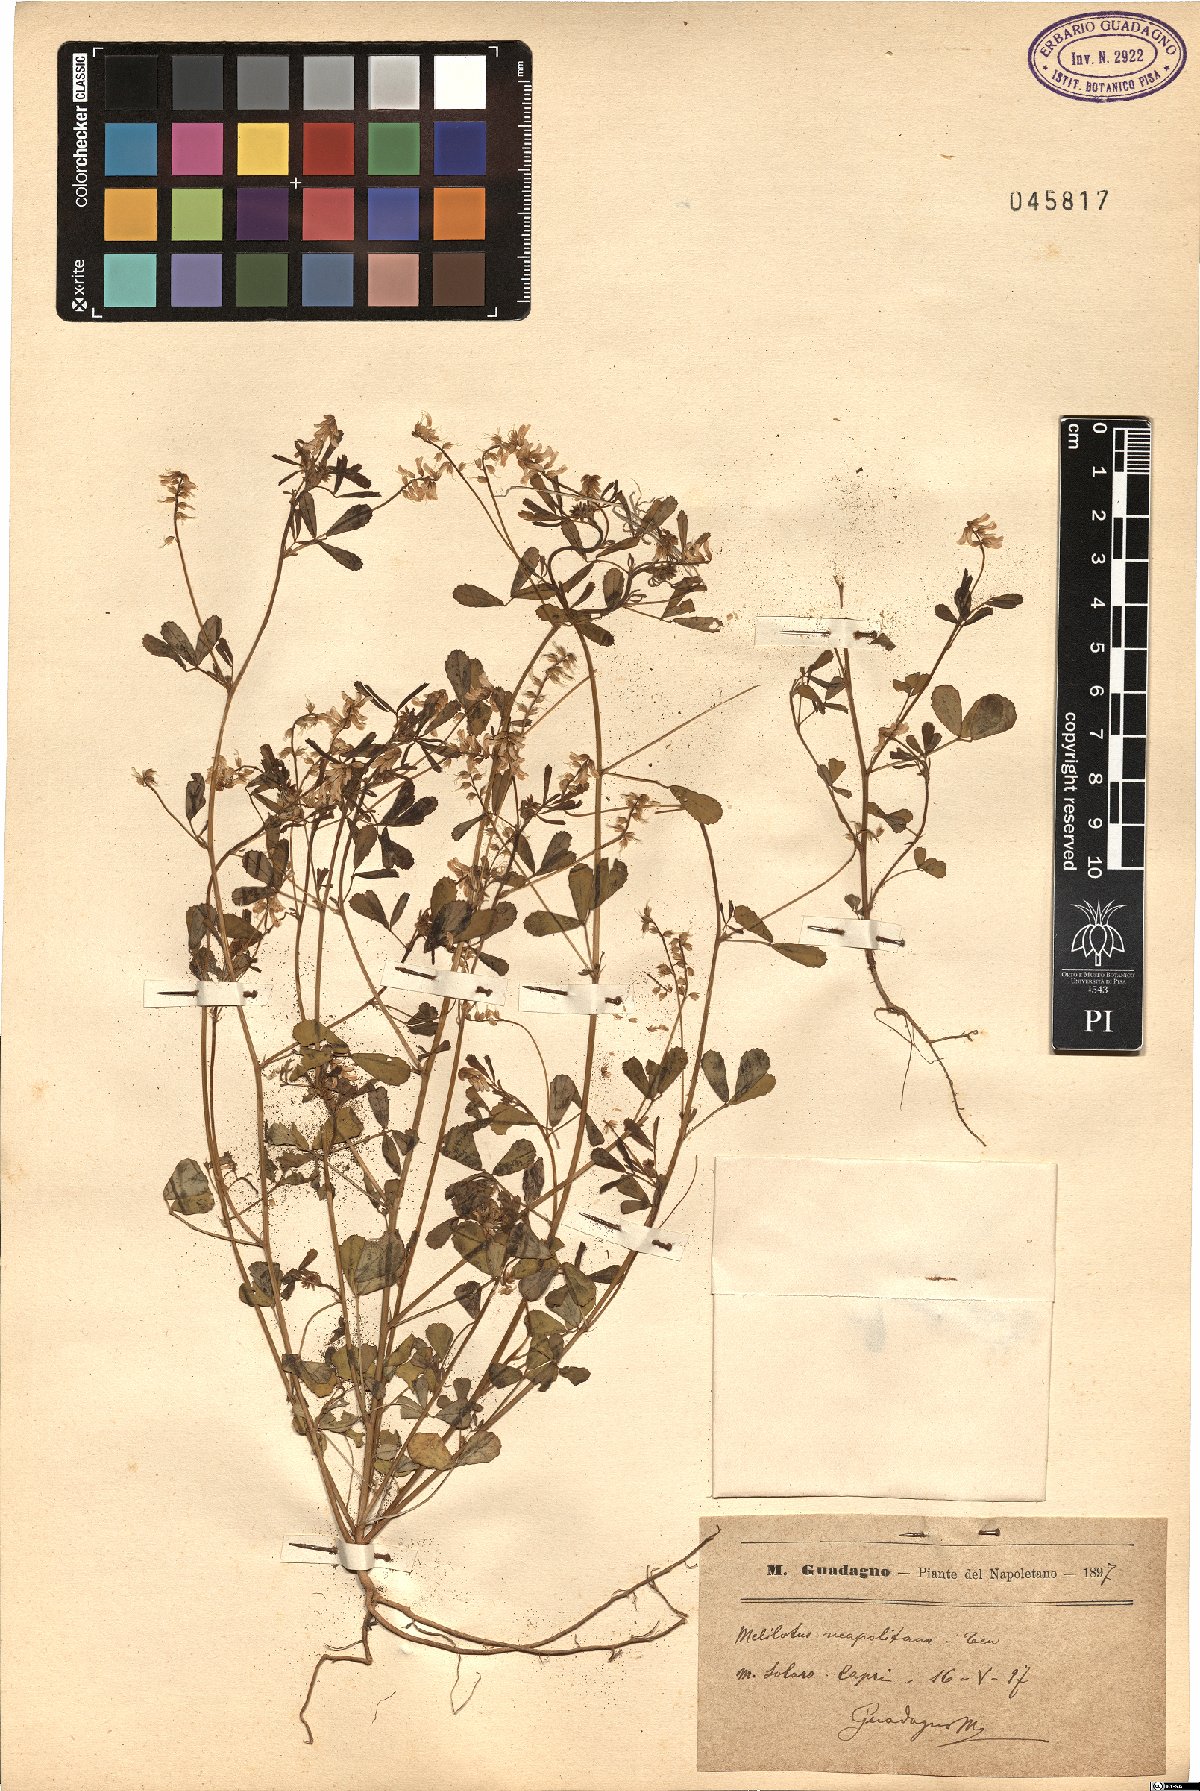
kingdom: Plantae
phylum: Tracheophyta
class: Magnoliopsida
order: Fabales
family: Fabaceae
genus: Melilotus
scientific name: Melilotus neapolitanus
